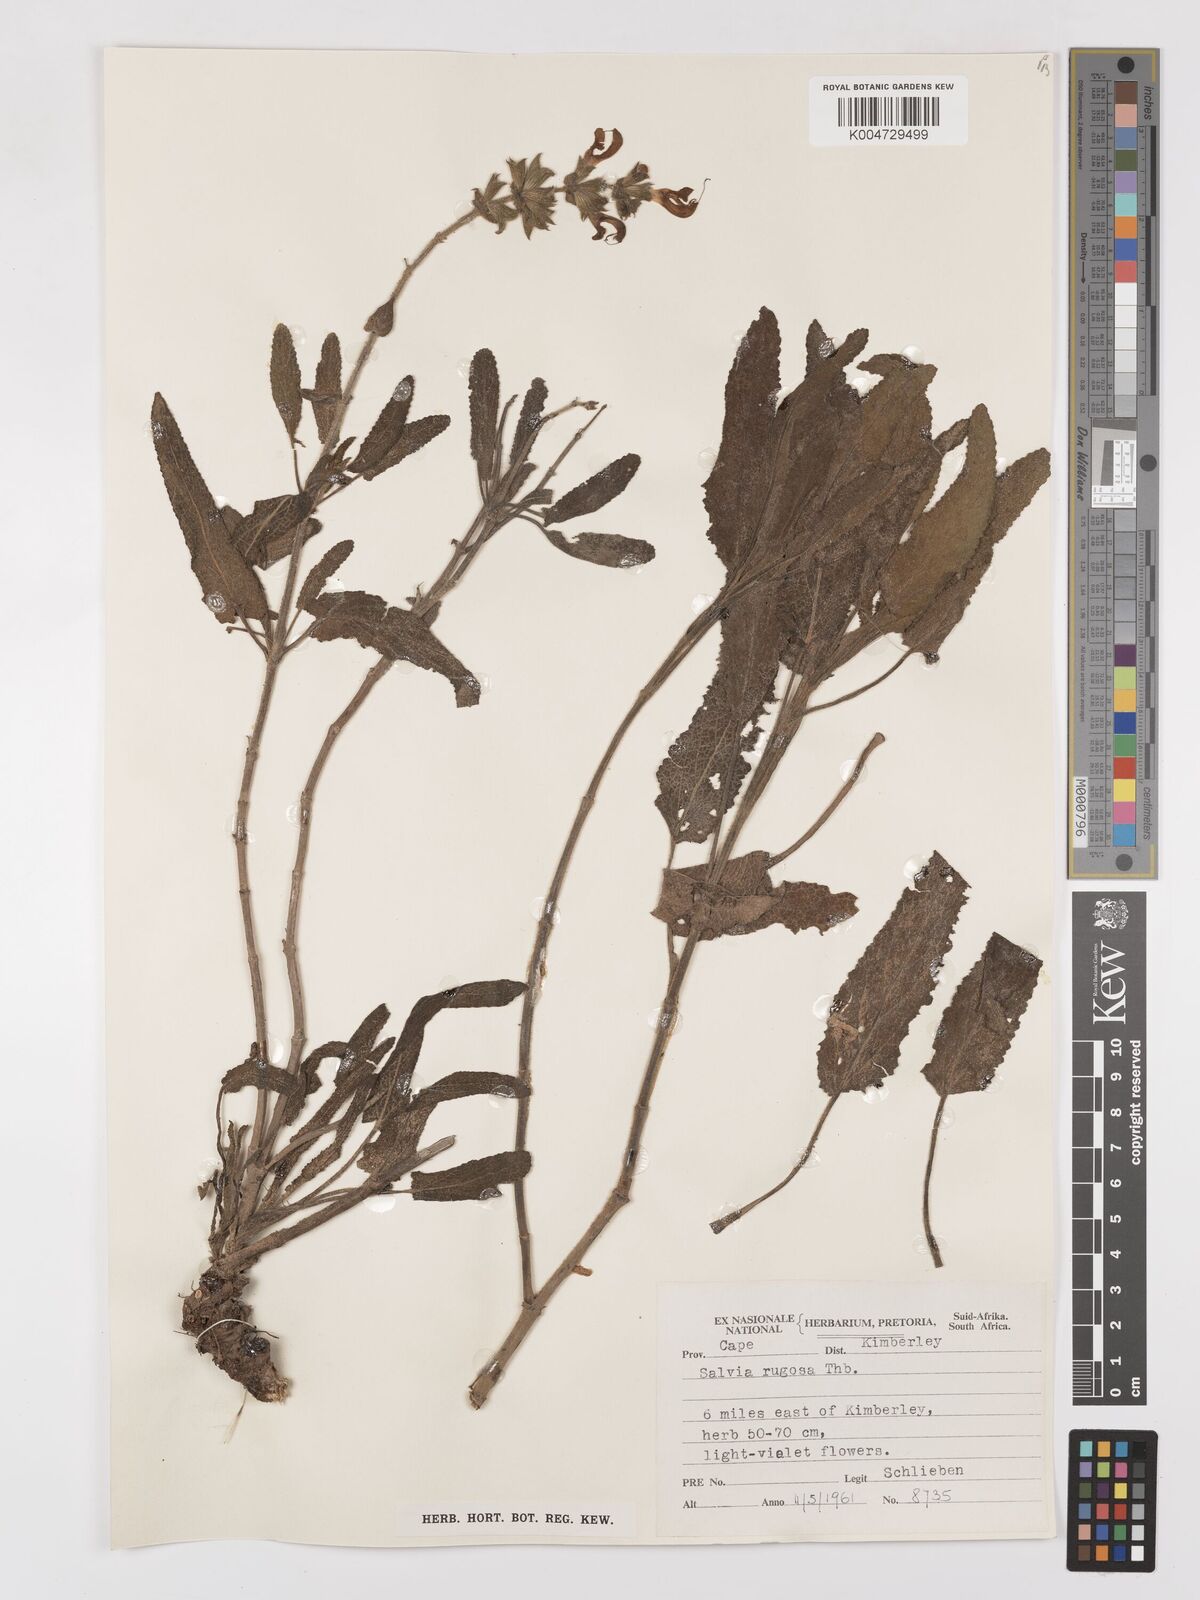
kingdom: Plantae
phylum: Tracheophyta
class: Magnoliopsida
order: Lamiales
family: Lamiaceae
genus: Salvia
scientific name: Salvia
